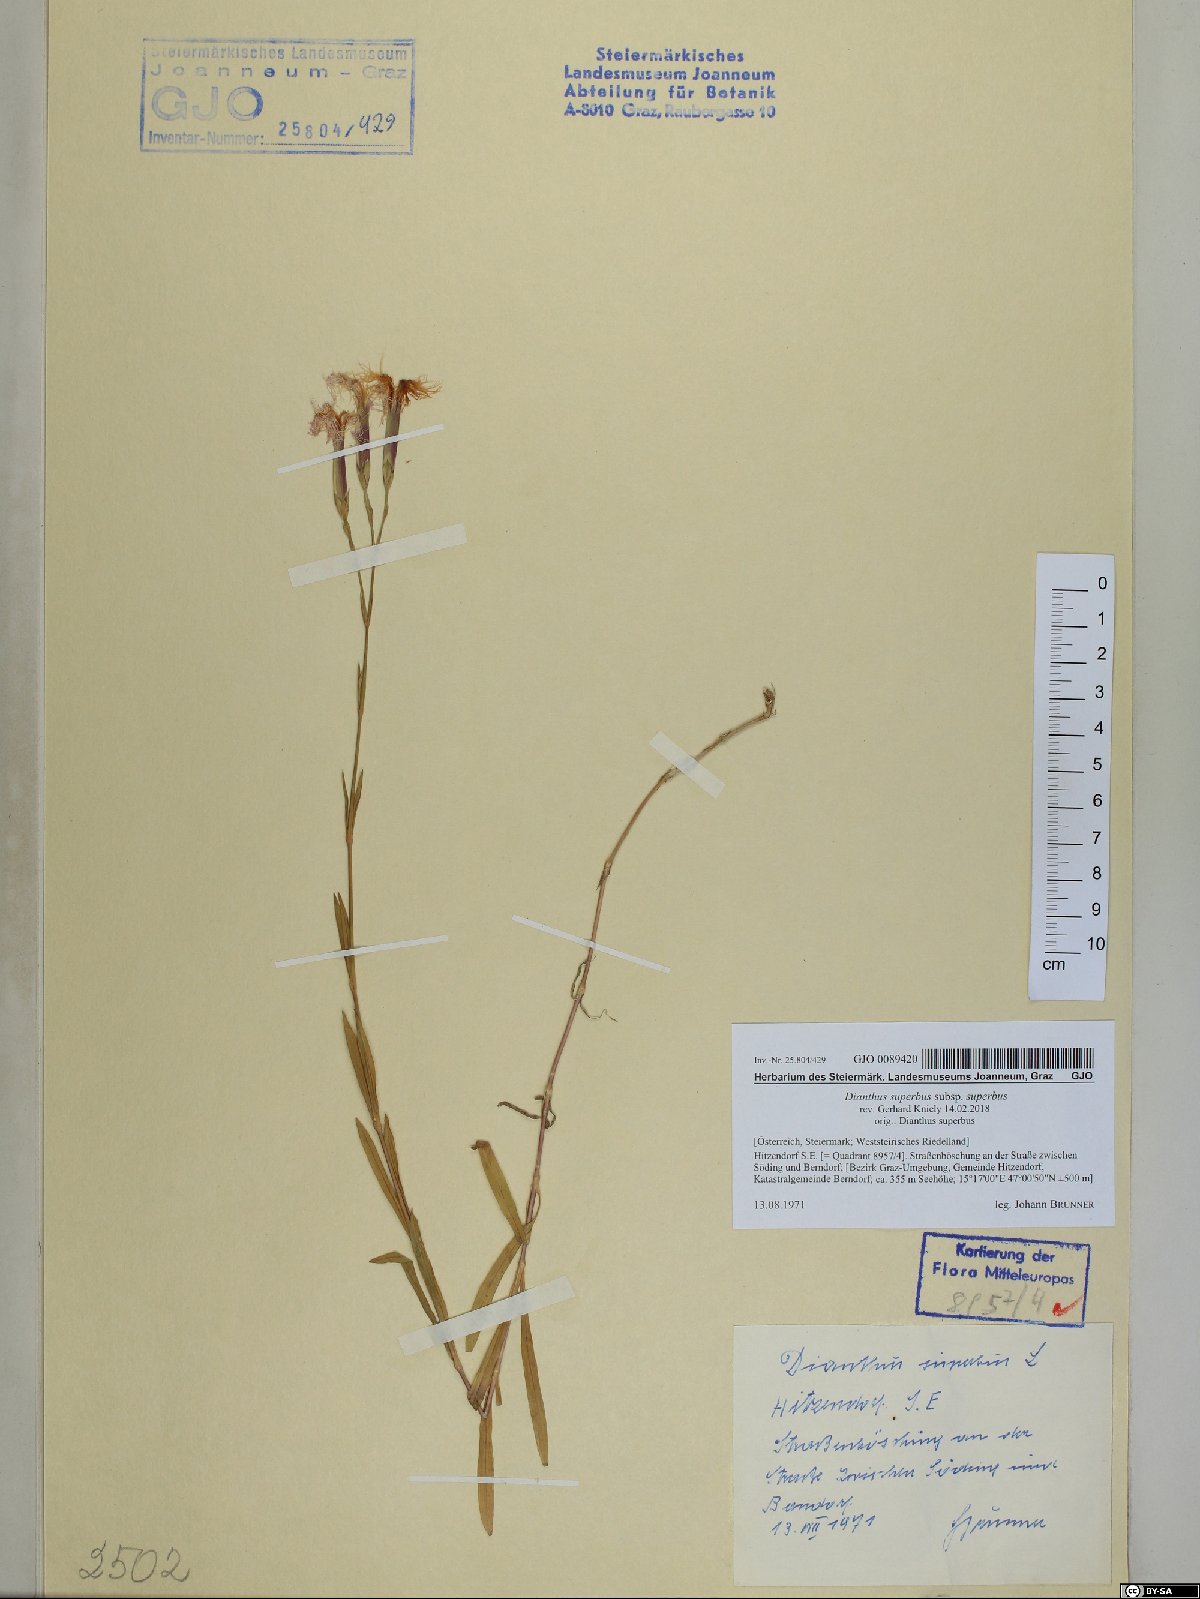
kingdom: Plantae
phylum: Tracheophyta
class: Magnoliopsida
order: Caryophyllales
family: Caryophyllaceae
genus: Dianthus
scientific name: Dianthus superbus
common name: Fringed pink
